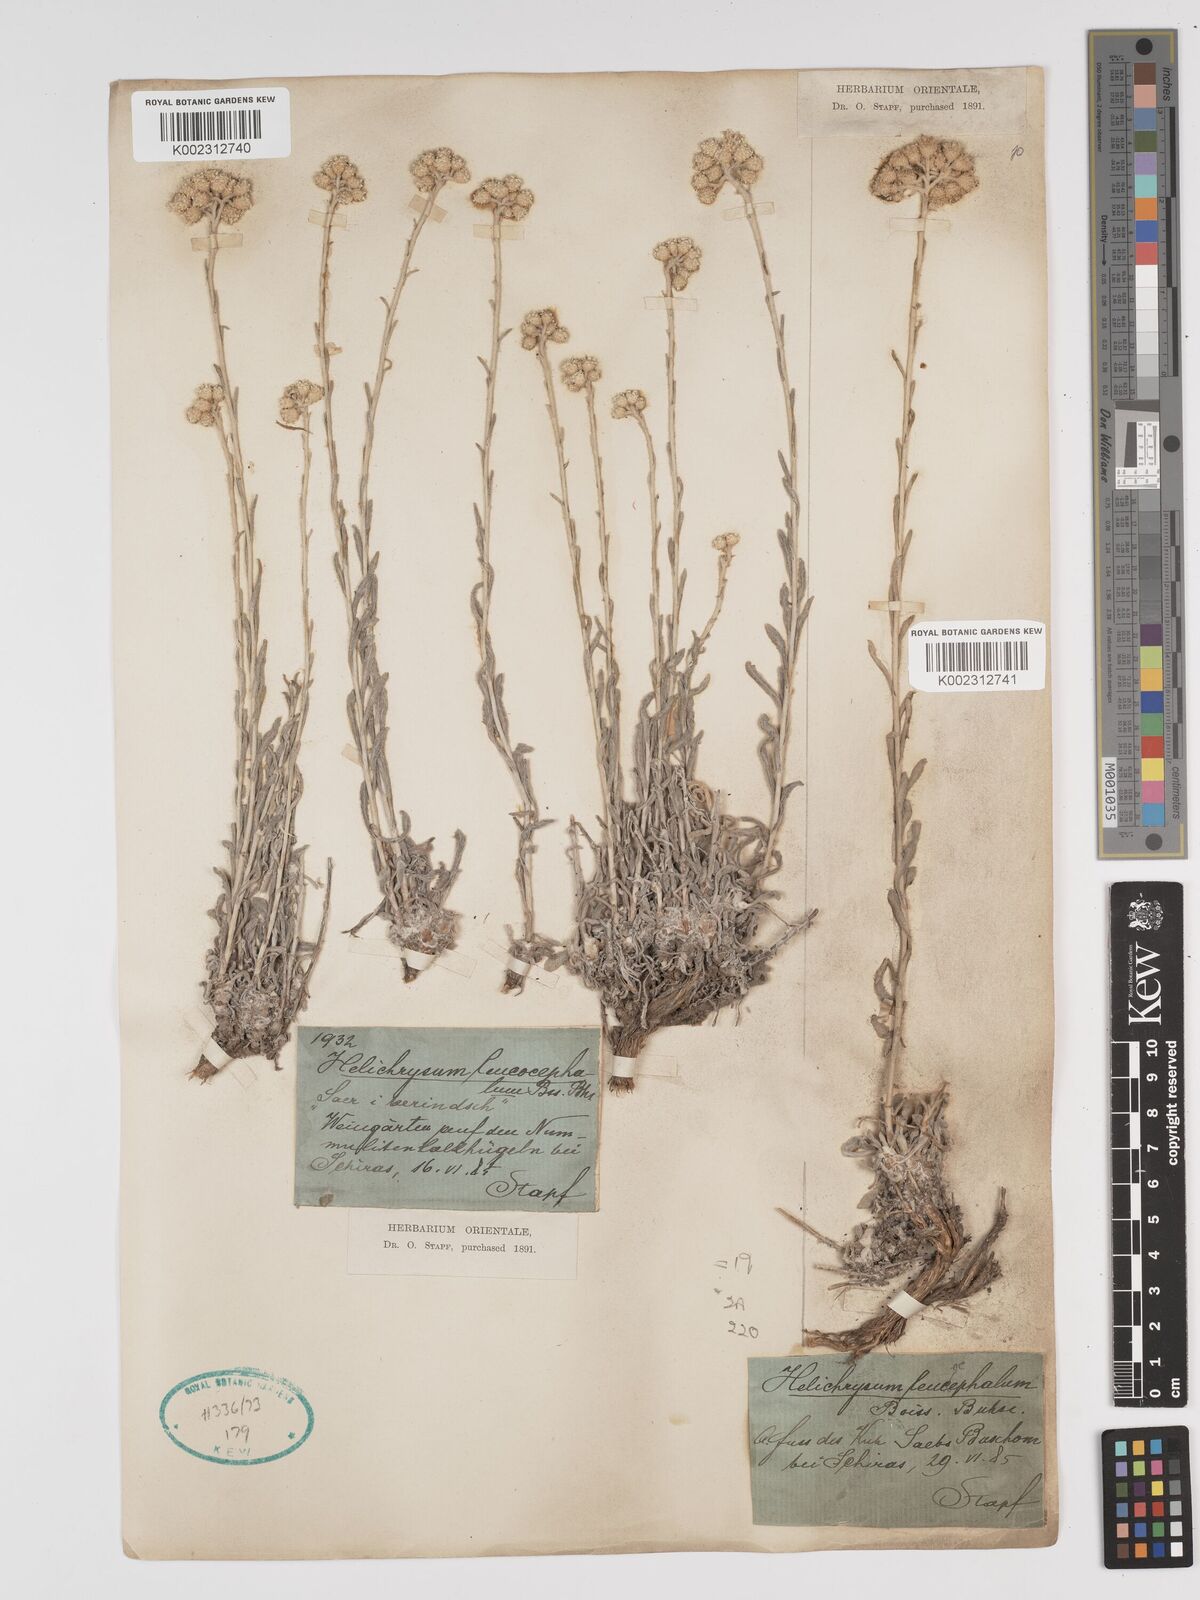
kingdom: Plantae
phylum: Tracheophyta
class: Magnoliopsida
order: Asterales
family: Asteraceae
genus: Helichrysum
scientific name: Helichrysum leucocephalum
